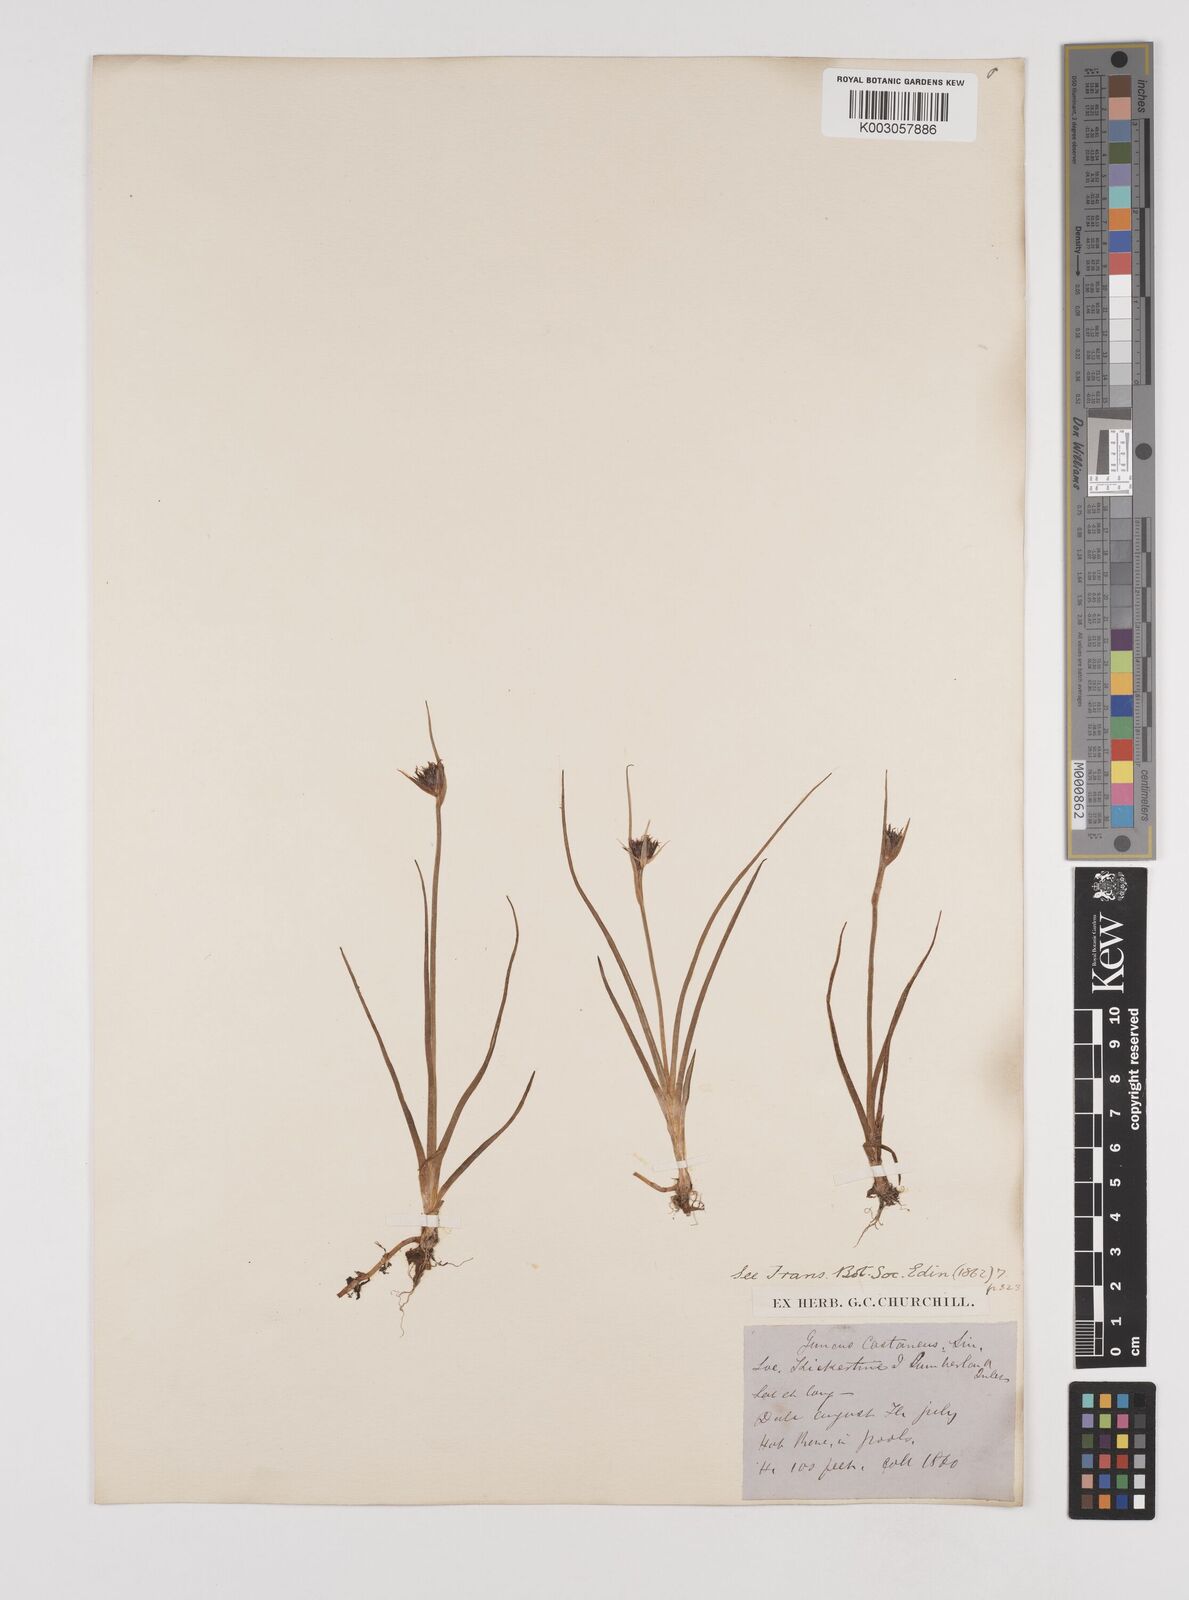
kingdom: Plantae
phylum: Tracheophyta
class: Liliopsida
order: Poales
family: Juncaceae
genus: Juncus
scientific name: Juncus castaneus
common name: Chestnut rush
